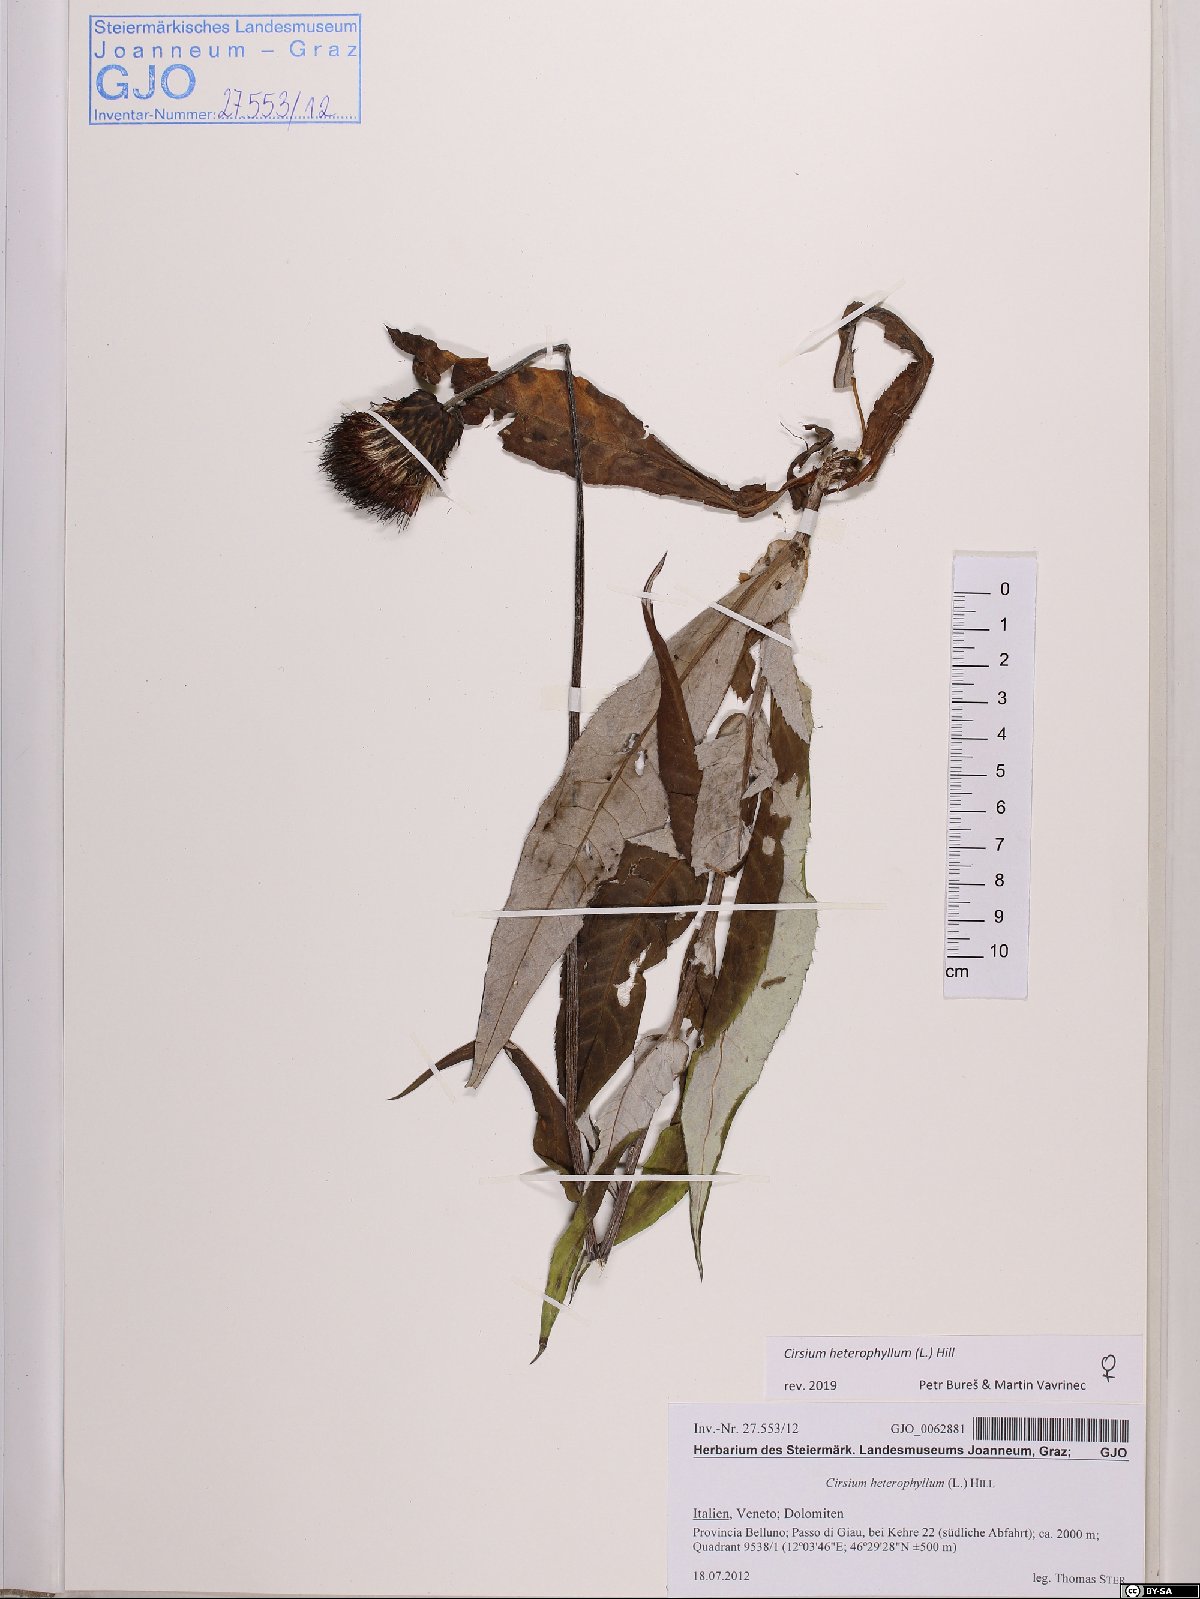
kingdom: Plantae
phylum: Tracheophyta
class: Magnoliopsida
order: Asterales
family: Asteraceae
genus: Cirsium
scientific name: Cirsium heterophyllum
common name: Melancholy thistle
